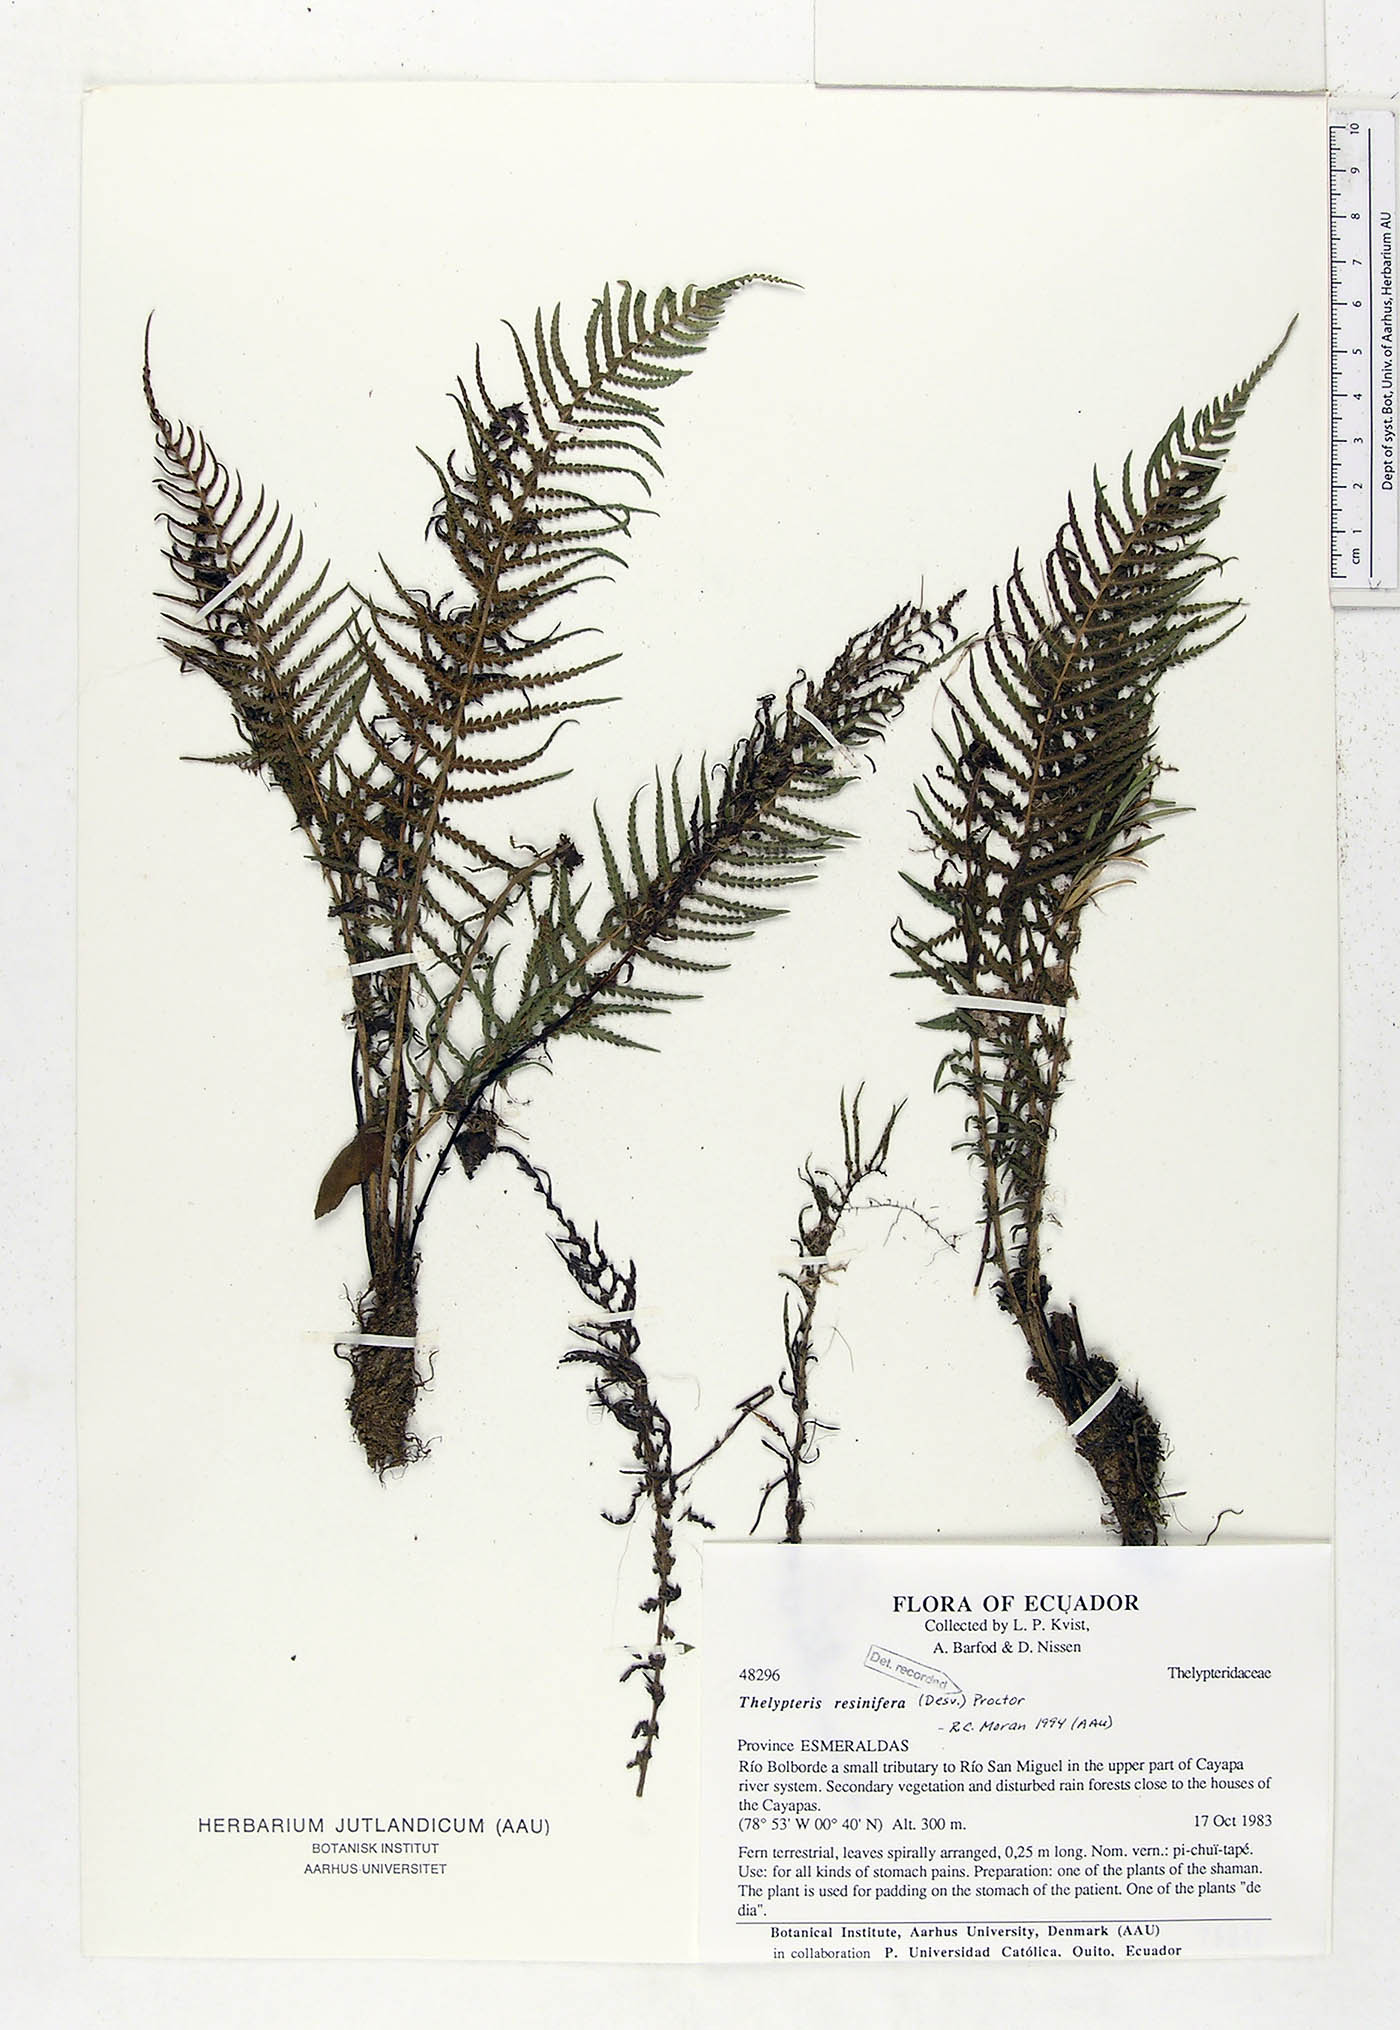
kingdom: Plantae
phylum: Tracheophyta
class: Polypodiopsida
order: Polypodiales
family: Thelypteridaceae
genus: Amauropelta
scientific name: Amauropelta resinifera
